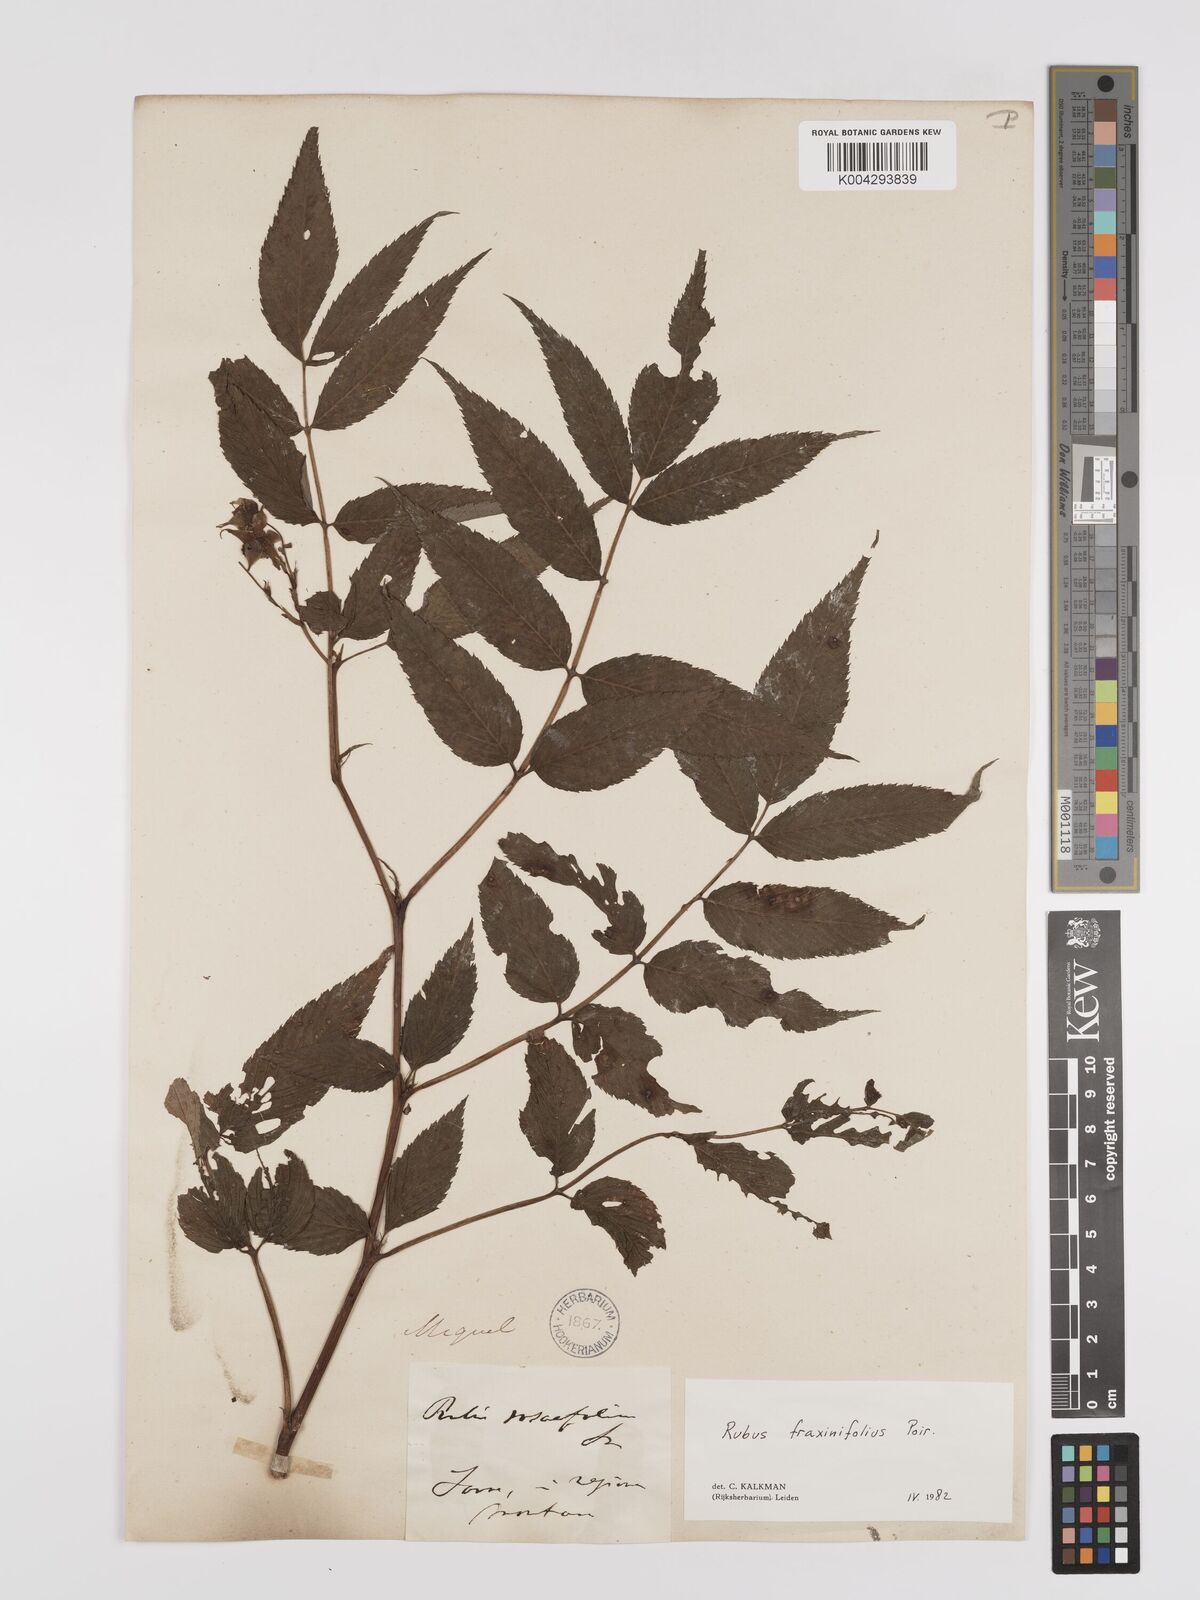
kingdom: Plantae
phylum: Tracheophyta
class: Magnoliopsida
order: Rosales
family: Rosaceae
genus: Rubus
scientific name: Rubus fraxinifolius
